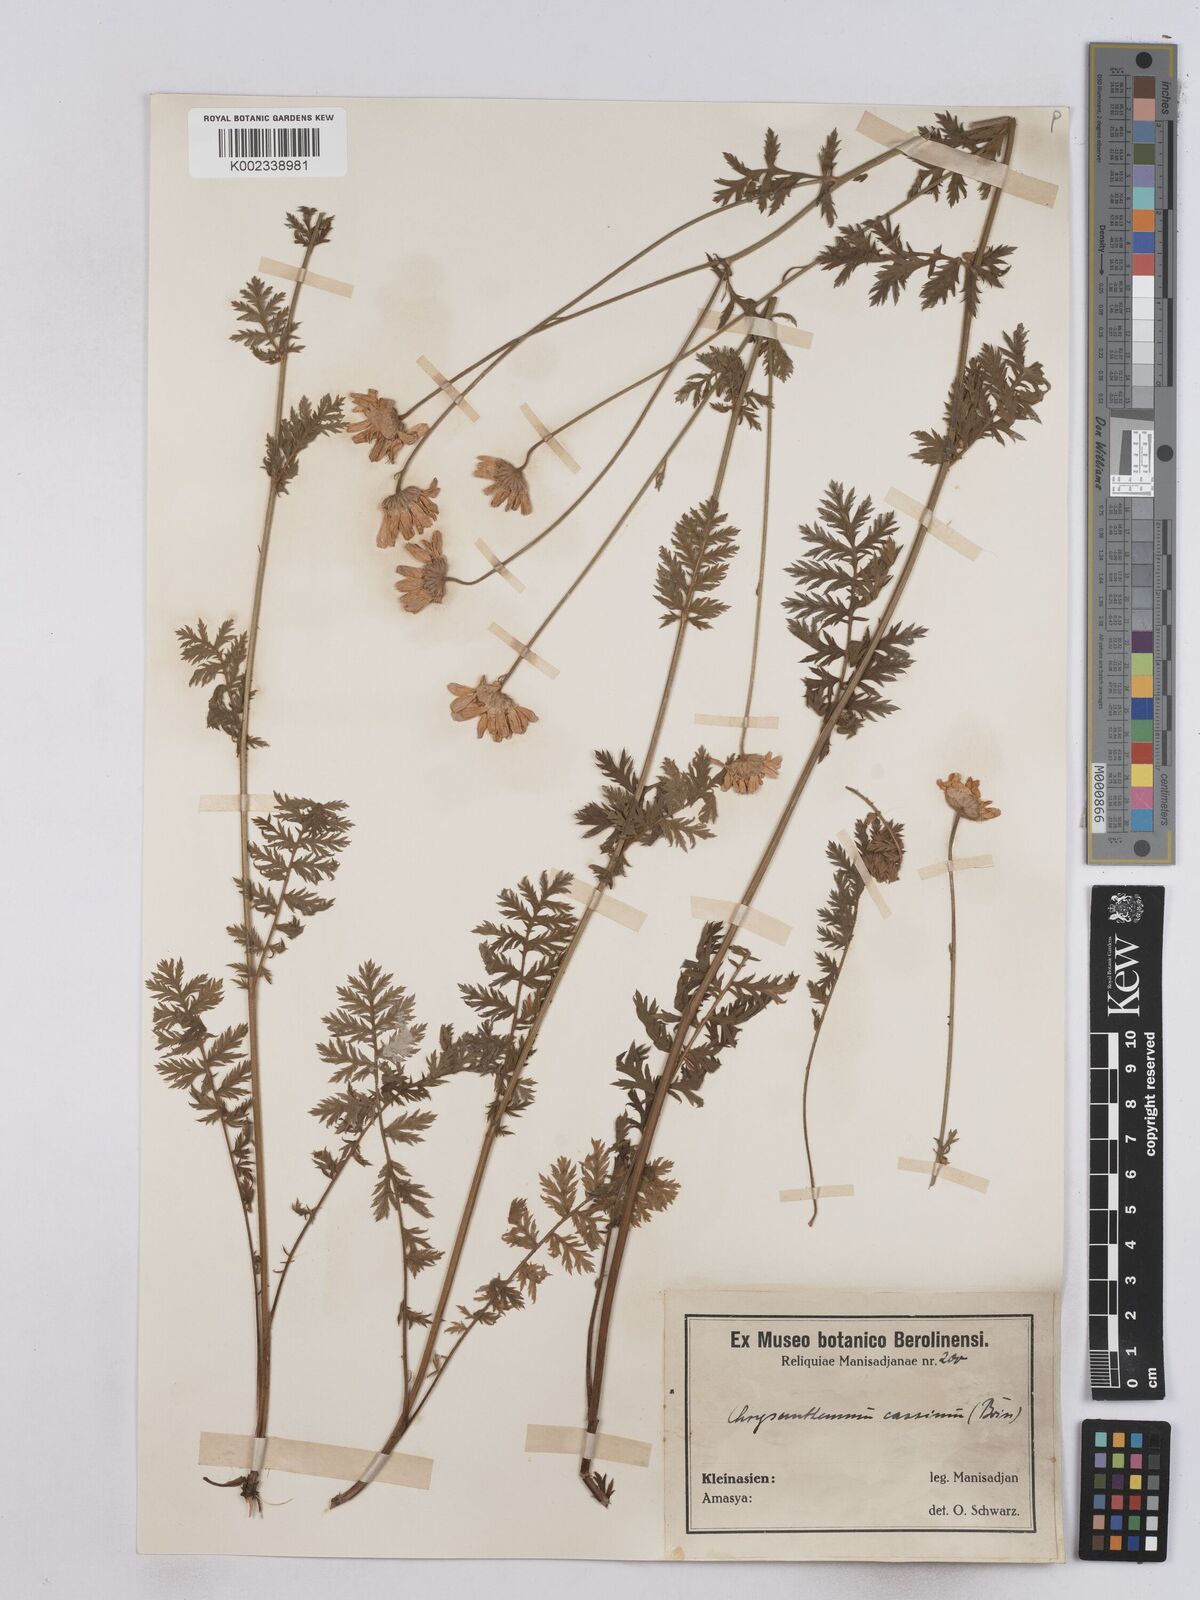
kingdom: Plantae
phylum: Tracheophyta
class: Magnoliopsida
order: Asterales
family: Asteraceae
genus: Tanacetum
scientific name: Tanacetum poteriifolium
